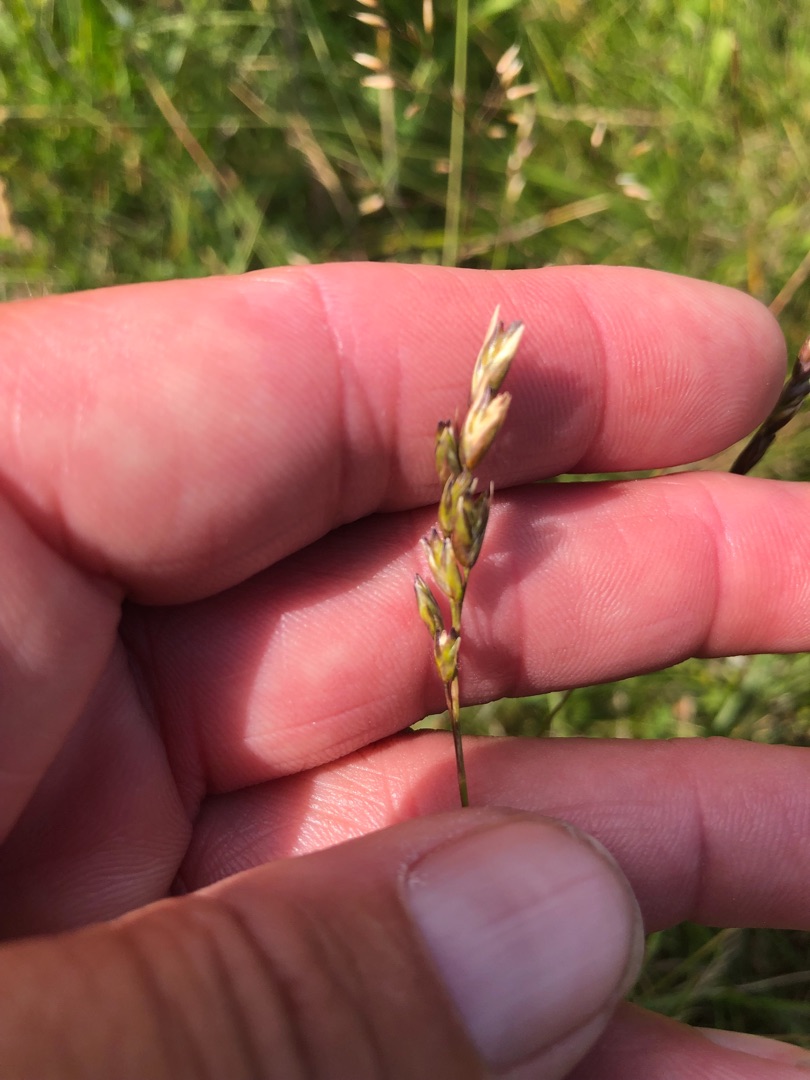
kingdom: Plantae
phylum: Tracheophyta
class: Liliopsida
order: Poales
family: Poaceae
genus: Danthonia
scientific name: Danthonia decumbens
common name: Tandbælg
